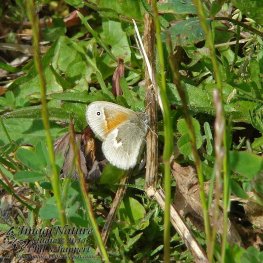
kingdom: Animalia
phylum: Arthropoda
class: Insecta
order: Lepidoptera
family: Nymphalidae
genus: Coenonympha
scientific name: Coenonympha tullia
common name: Large Heath
